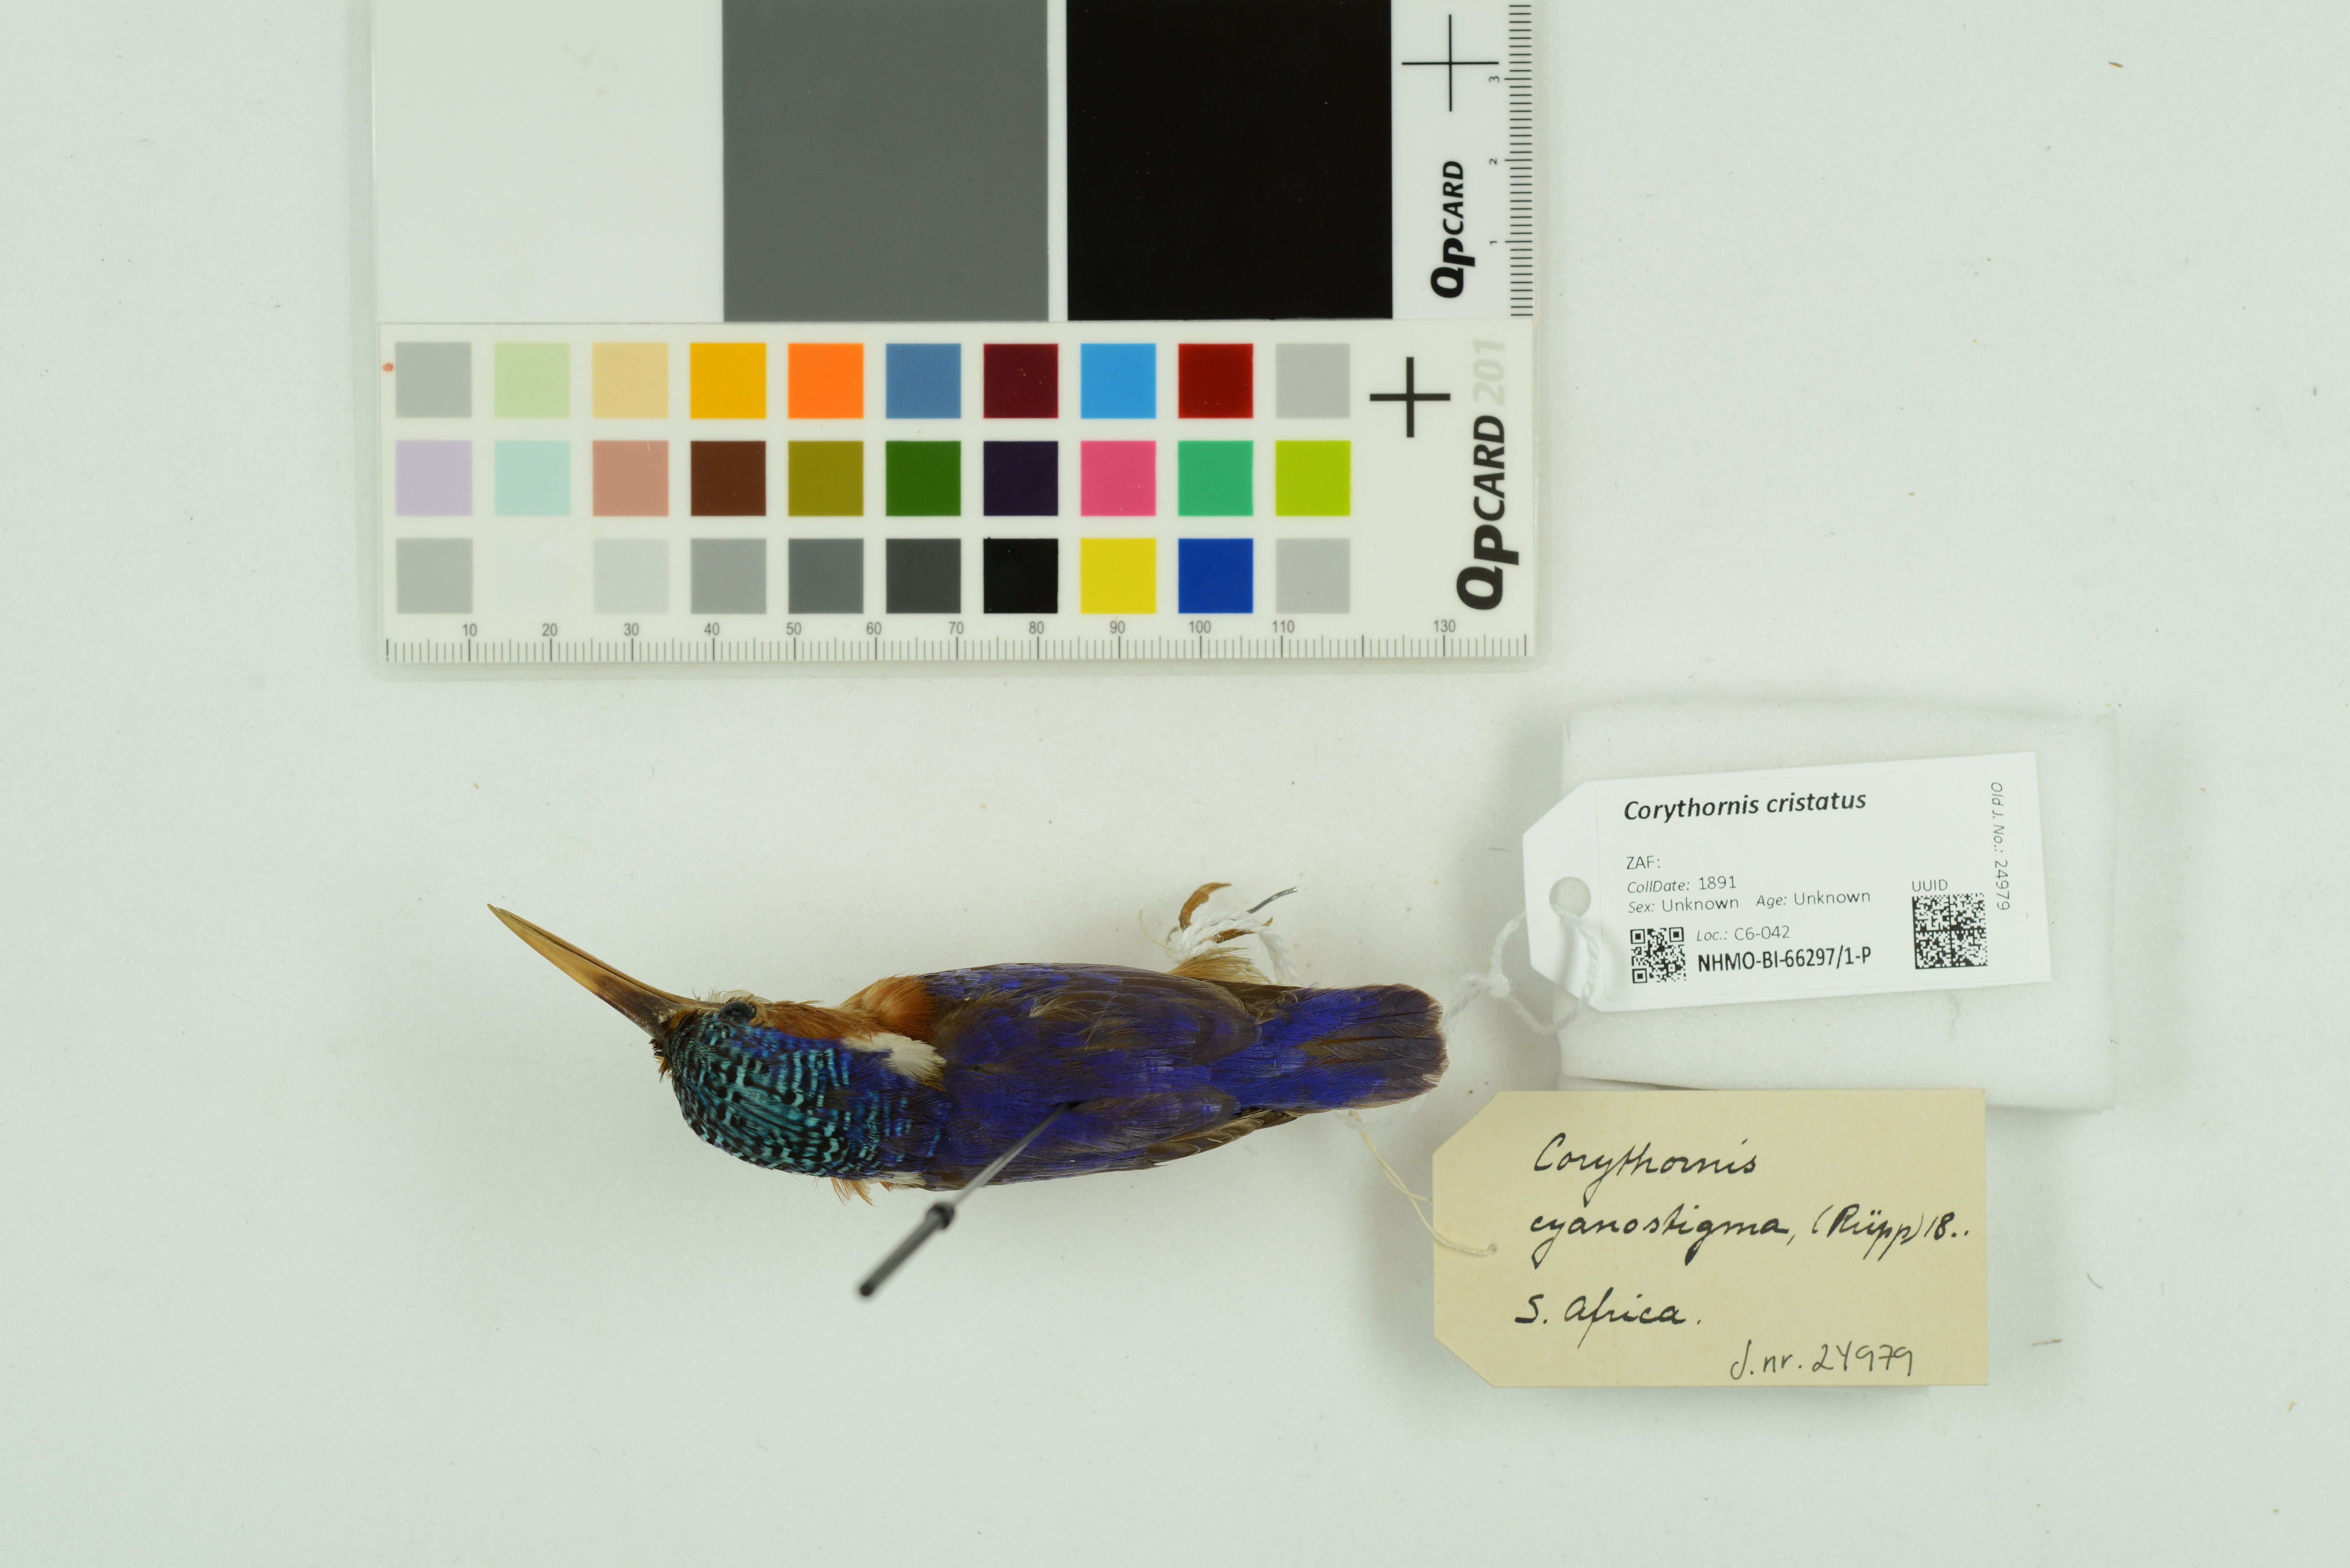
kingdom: Animalia
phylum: Chordata
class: Aves
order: Coraciiformes
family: Alcedinidae
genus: Corythornis
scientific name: Corythornis cristatus
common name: Malachite kingfisher
